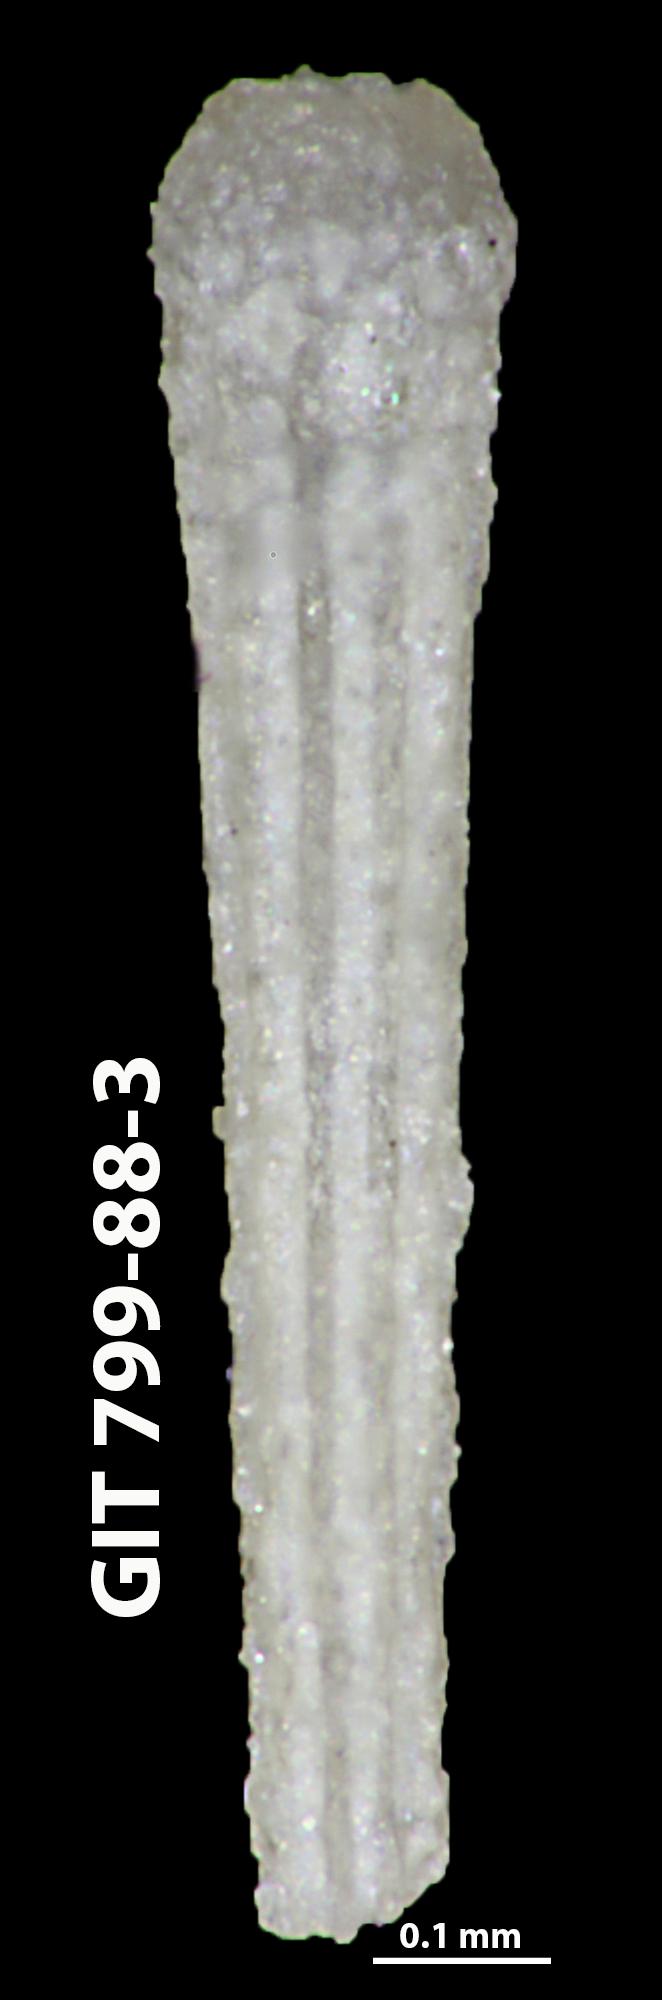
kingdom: Animalia
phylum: Echinodermata
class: Echinoidea
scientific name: Echinoidea
